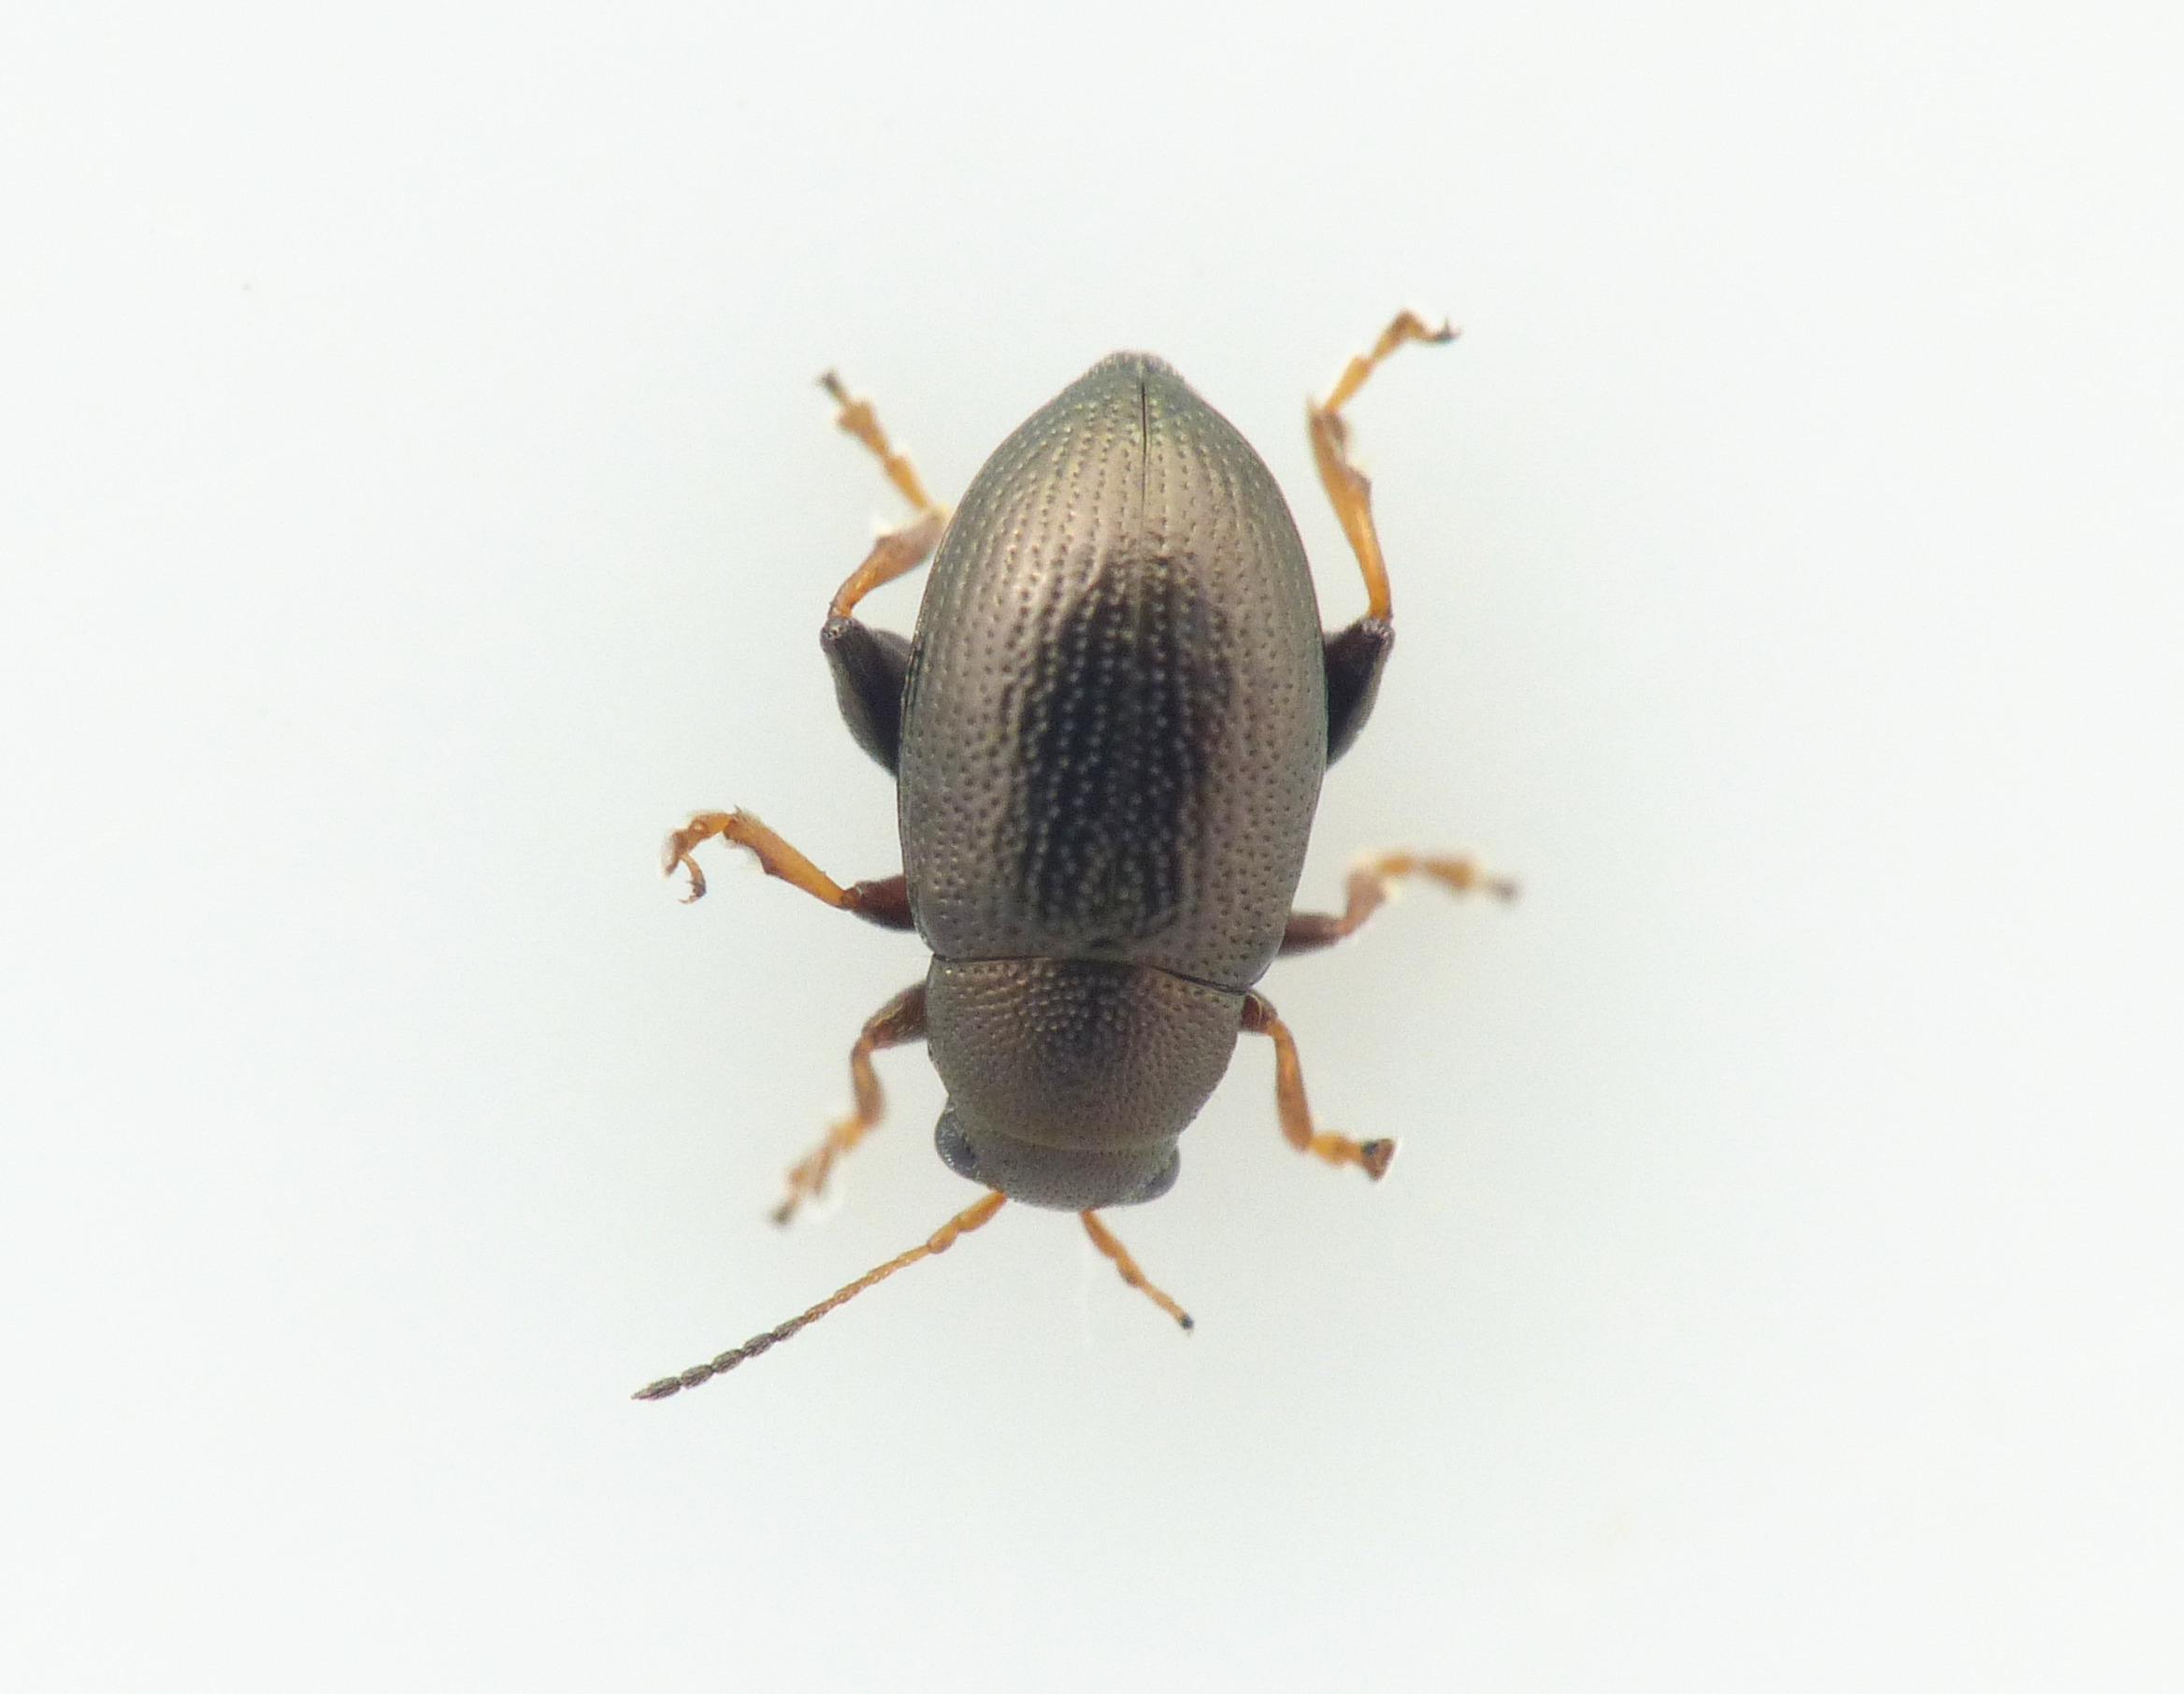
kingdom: Animalia
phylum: Arthropoda
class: Insecta
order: Coleoptera
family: Chrysomelidae
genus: Chaetocnema
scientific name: Chaetocnema hortensis
